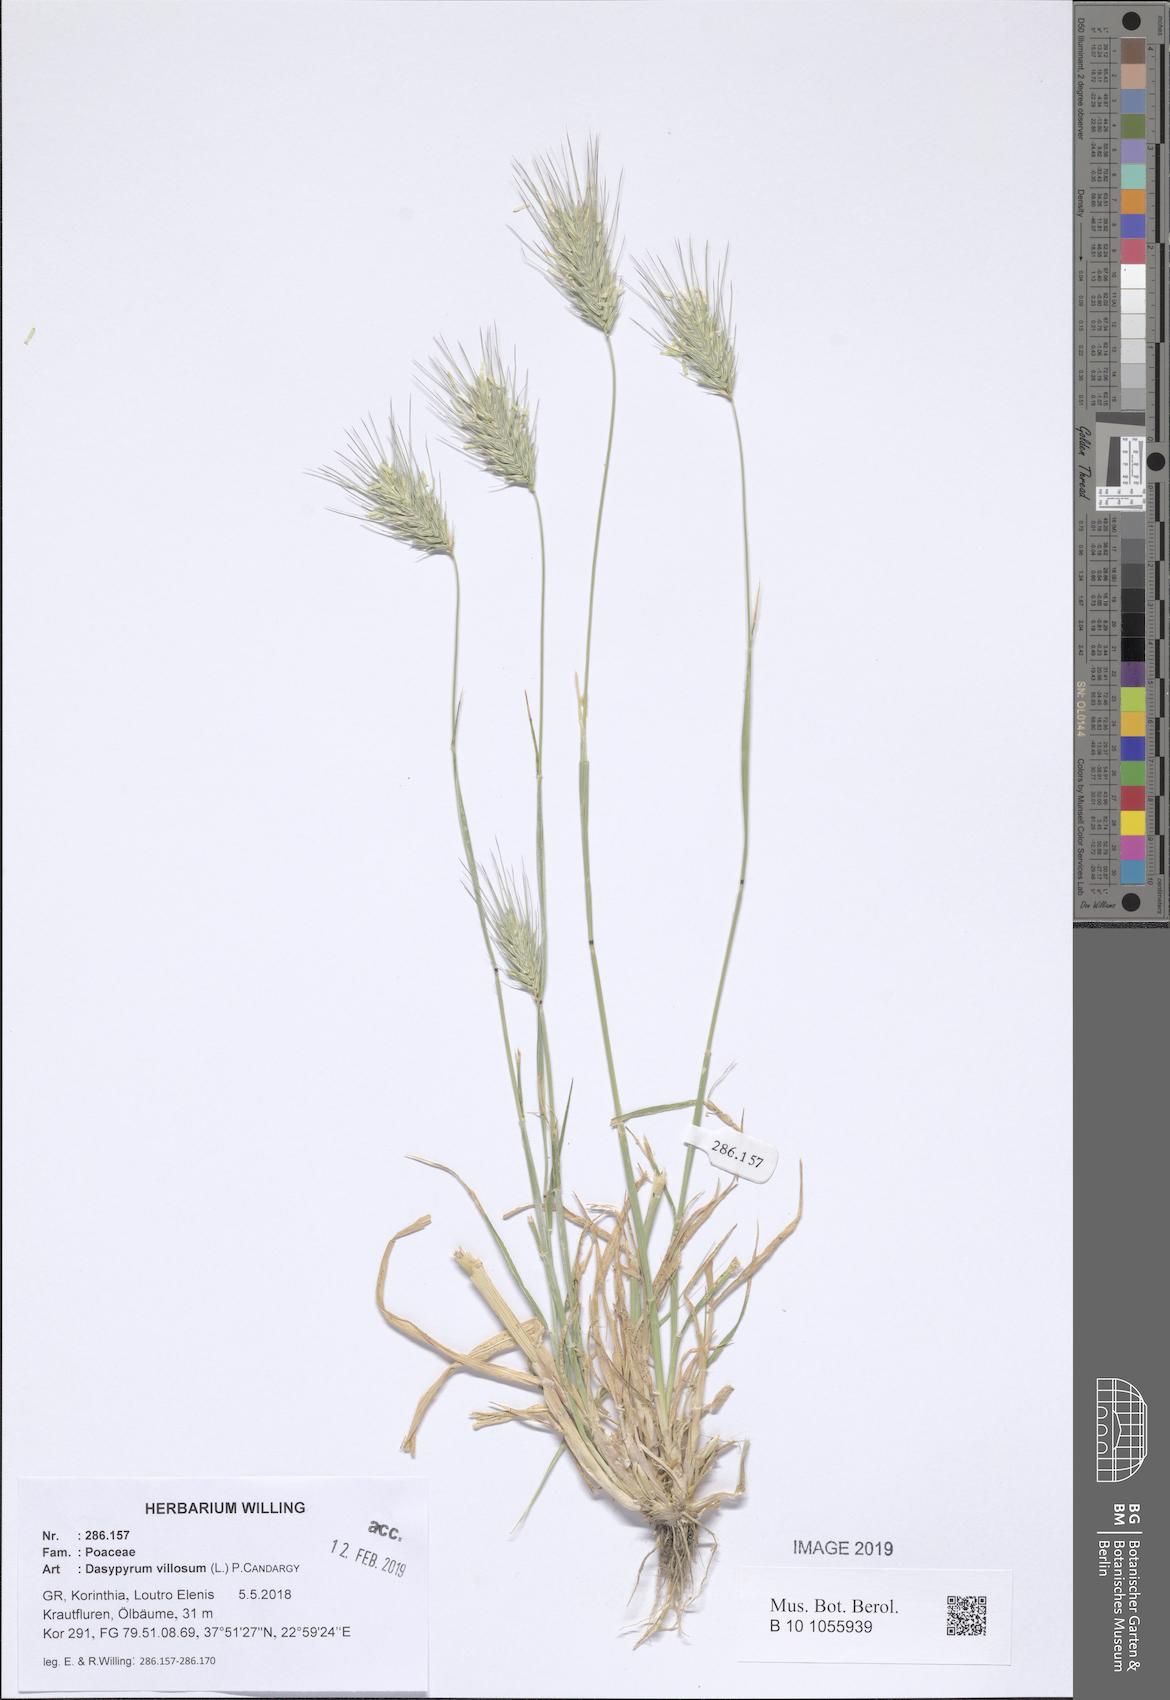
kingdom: Plantae
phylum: Tracheophyta
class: Liliopsida
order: Poales
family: Poaceae
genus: Dasypyrum
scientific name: Dasypyrum villosum
